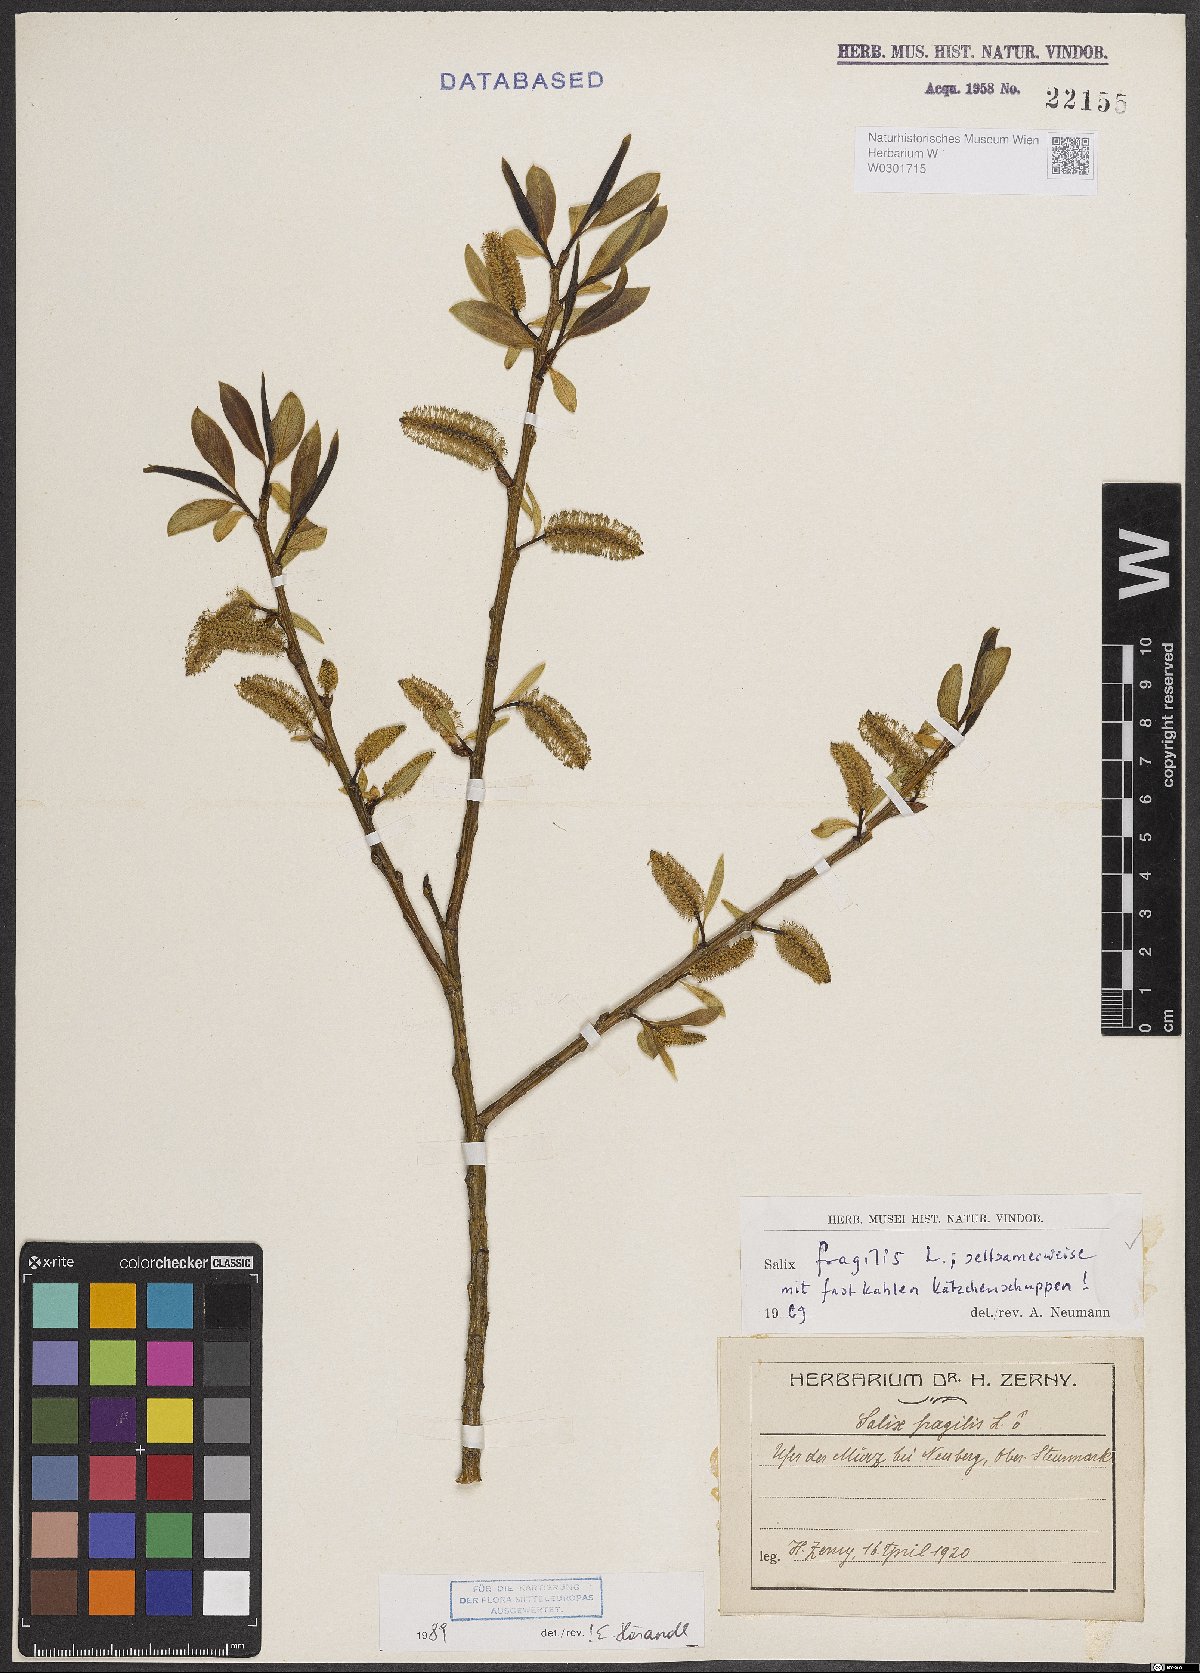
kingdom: Plantae
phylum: Tracheophyta
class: Magnoliopsida
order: Malpighiales
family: Salicaceae
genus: Salix
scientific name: Salix fragilis
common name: Crack willow
